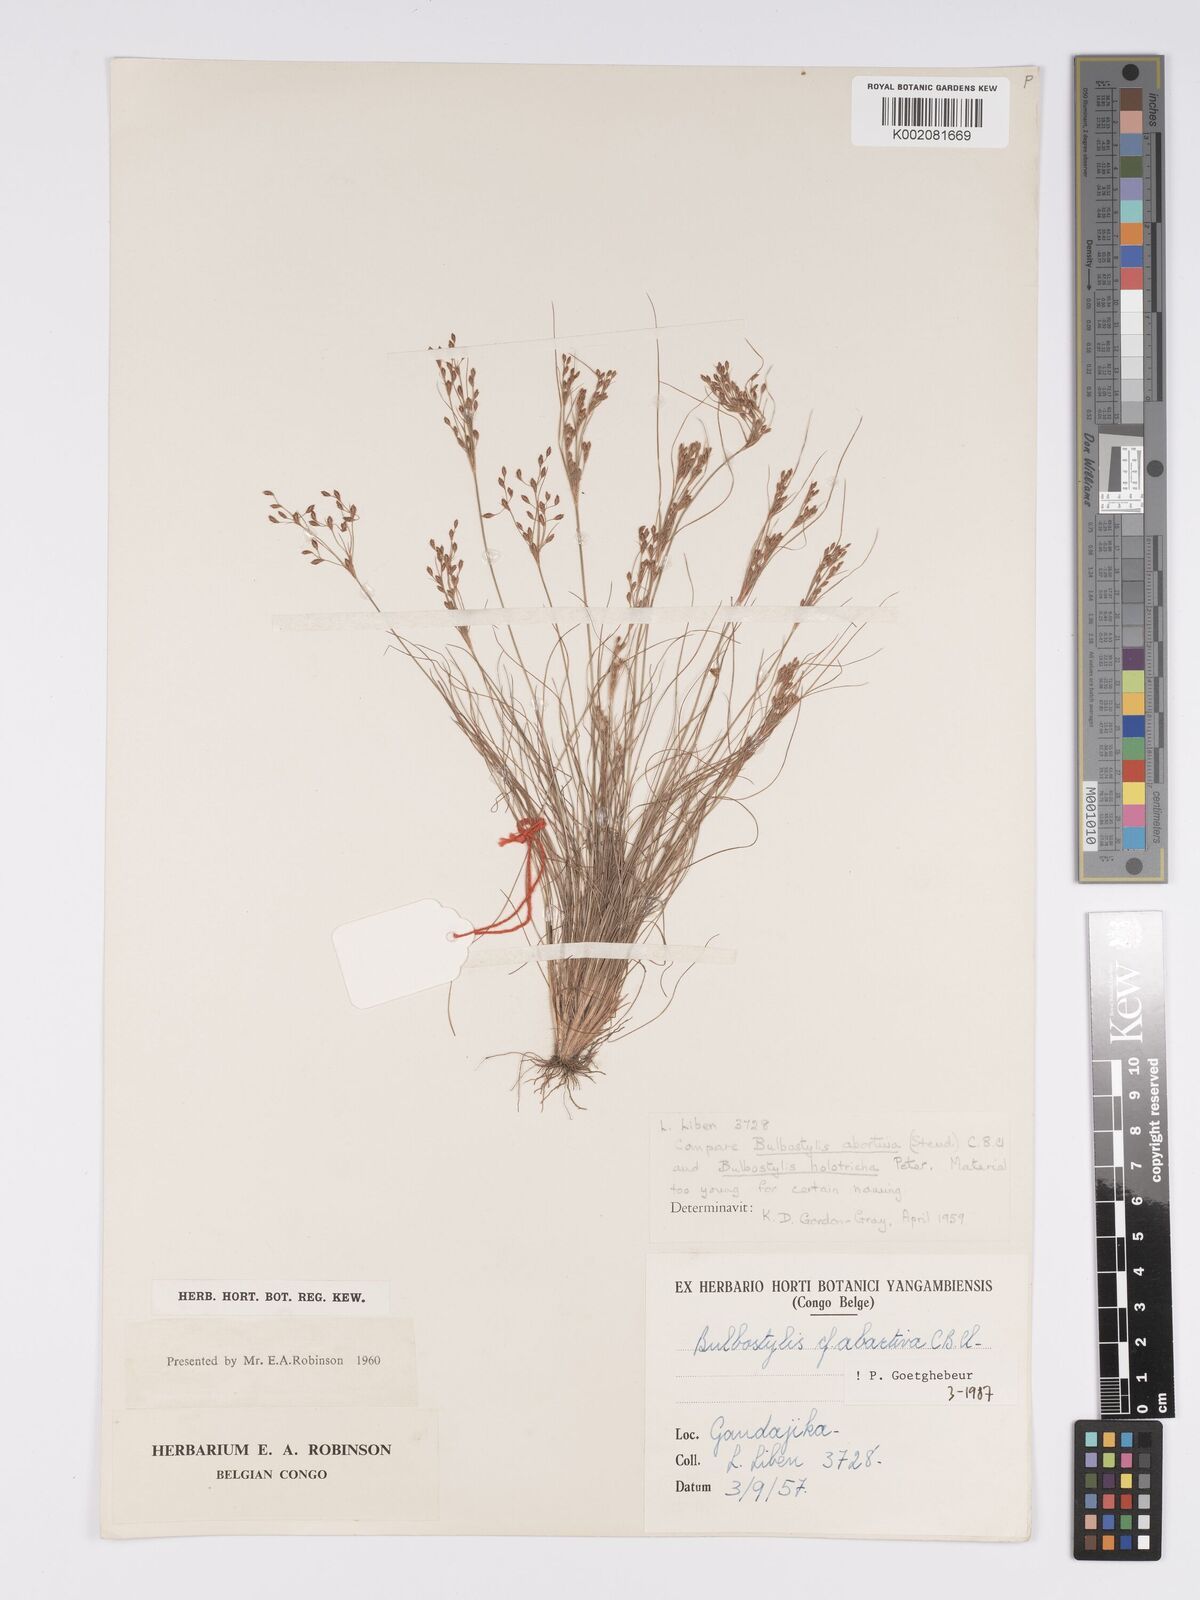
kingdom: Plantae
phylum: Tracheophyta
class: Liliopsida
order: Poales
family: Cyperaceae
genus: Bulbostylis
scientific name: Bulbostylis abortiva
